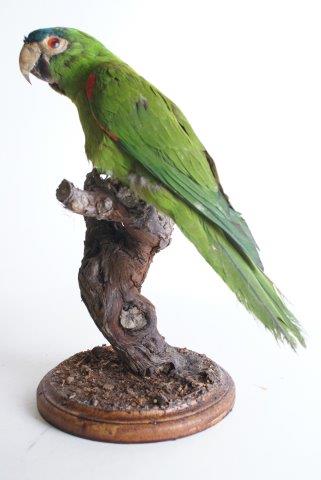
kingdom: Animalia
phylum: Chordata
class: Aves
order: Psittaciformes
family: Psittacidae
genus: Primolius
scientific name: Primolius maracana
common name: Blue-winged macaw
